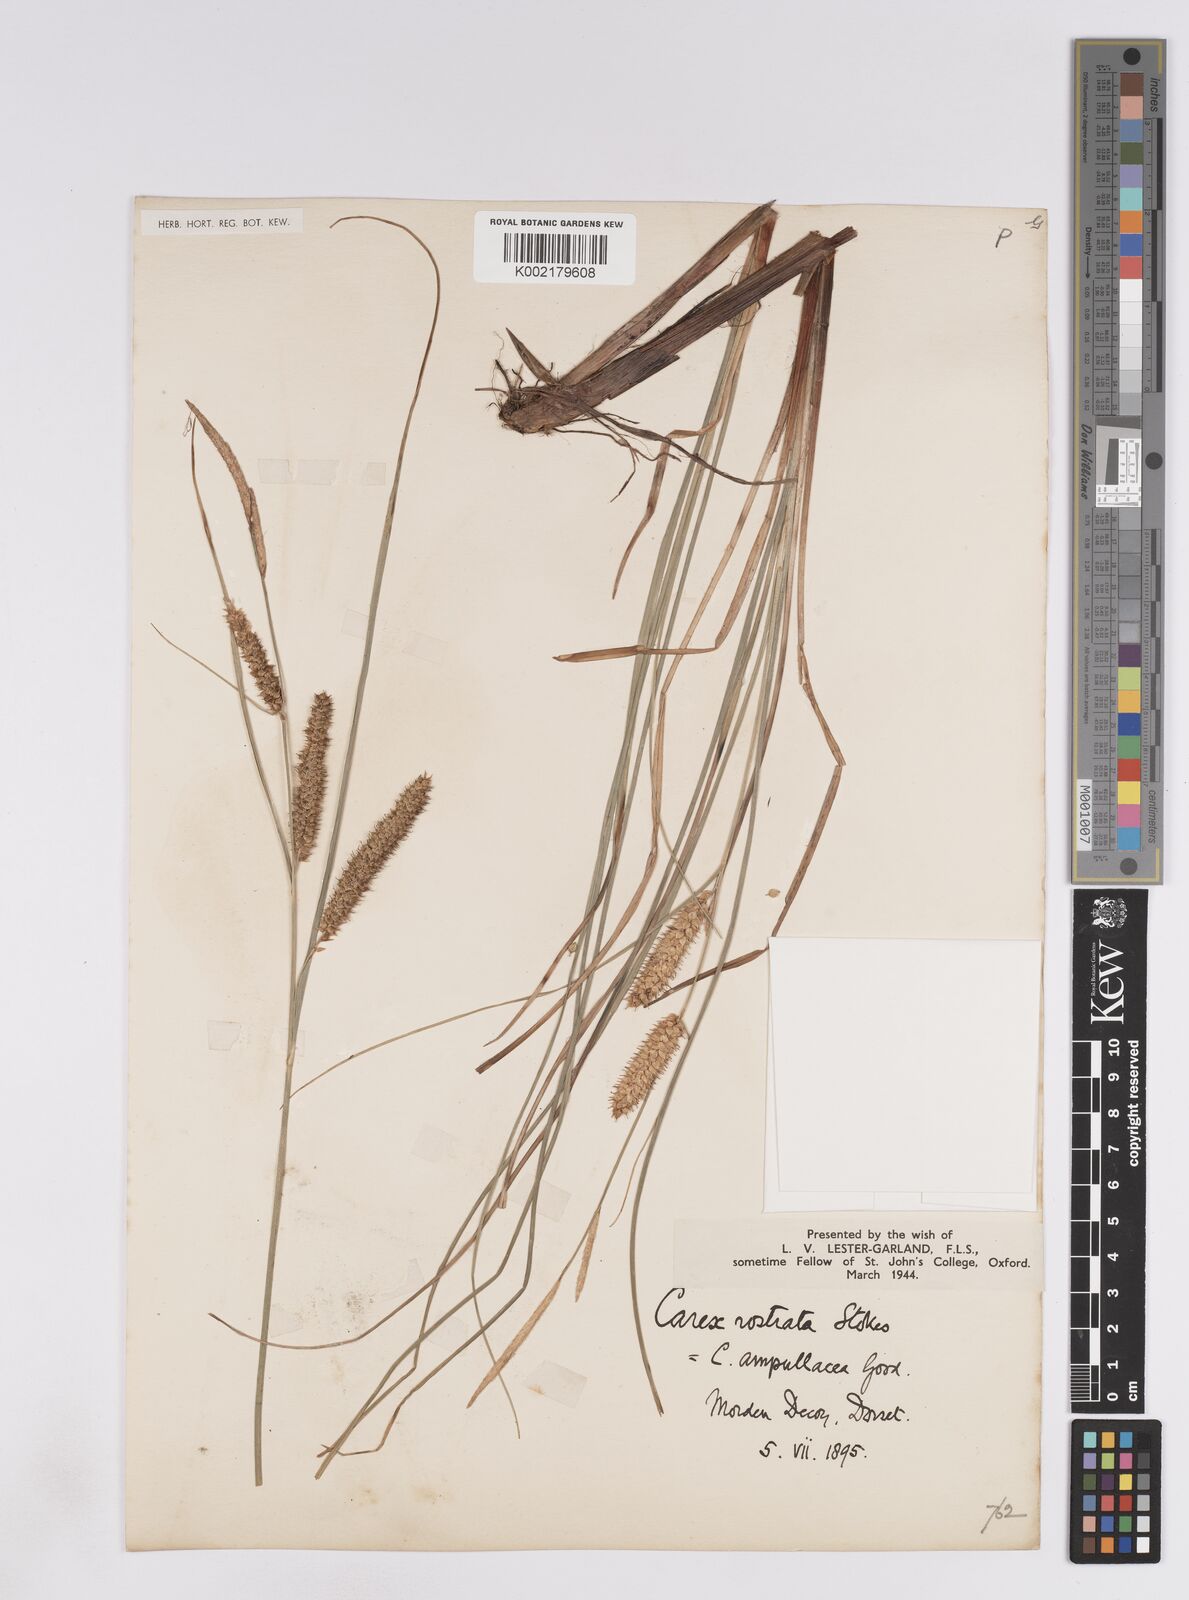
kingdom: Plantae
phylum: Tracheophyta
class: Liliopsida
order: Poales
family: Cyperaceae
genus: Carex
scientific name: Carex rostrata
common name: Bottle sedge
